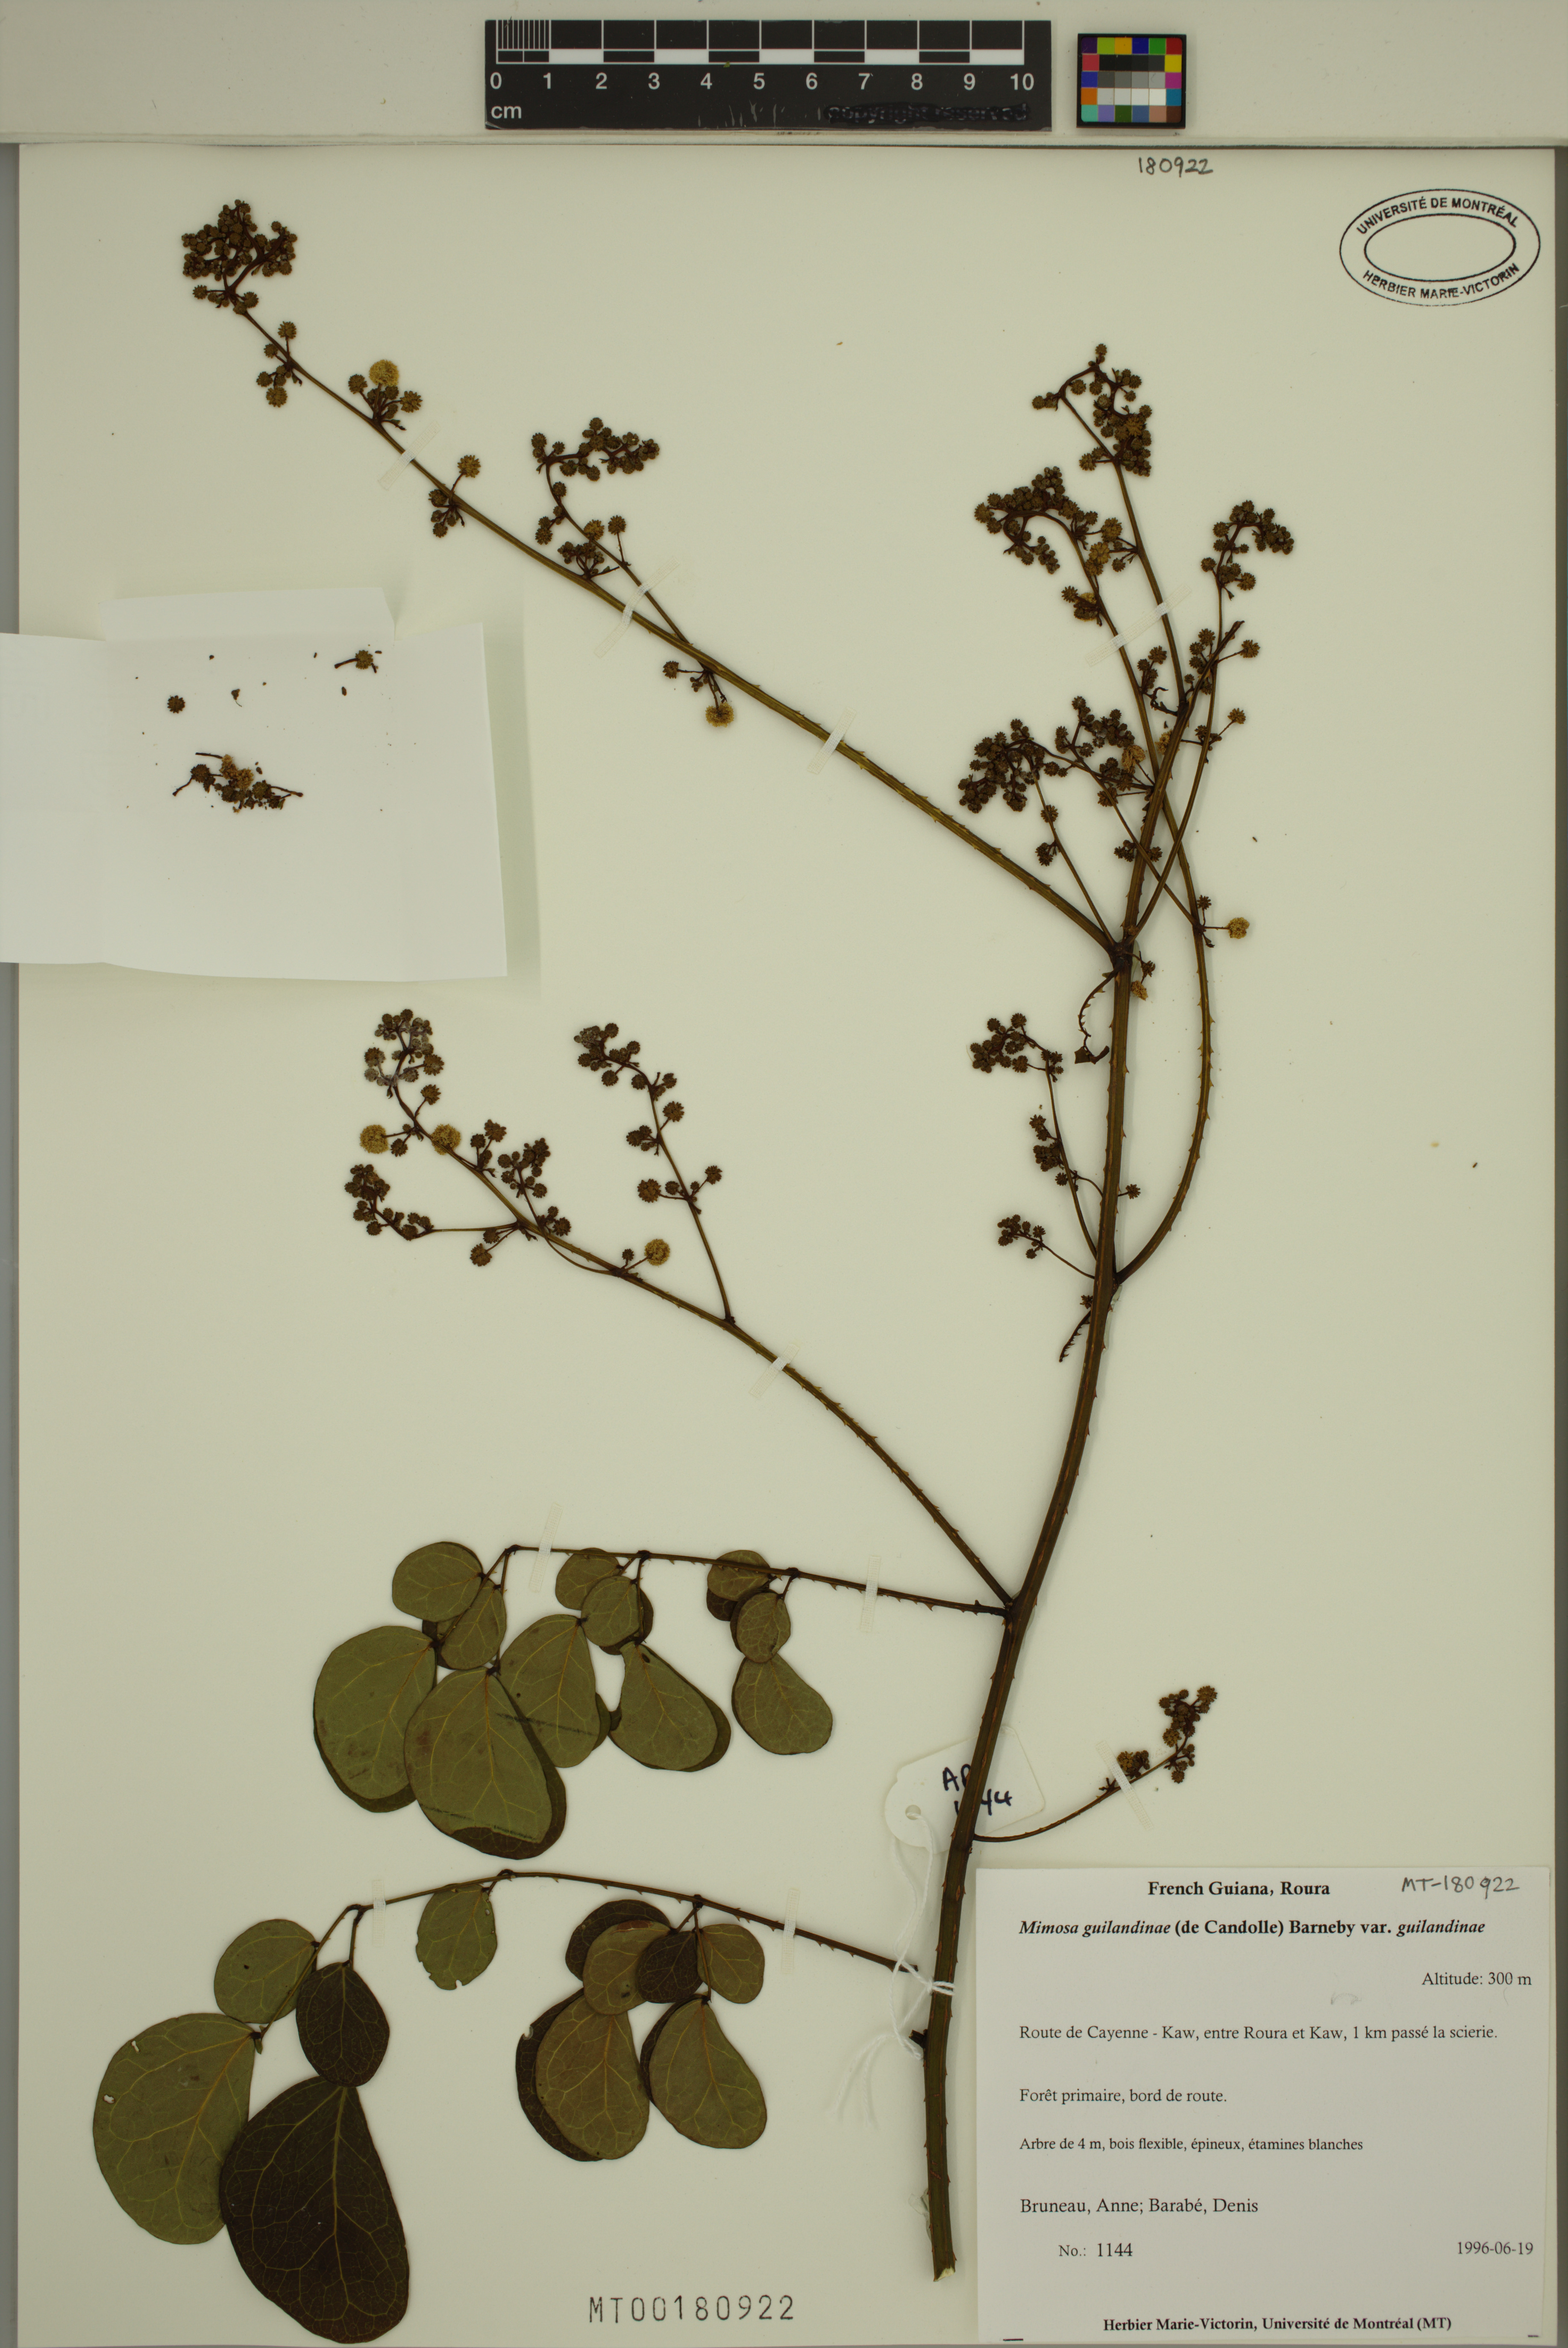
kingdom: Plantae
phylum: Tracheophyta
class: Magnoliopsida
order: Fabales
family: Fabaceae
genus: Mimosa
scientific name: Mimosa guilandinae
